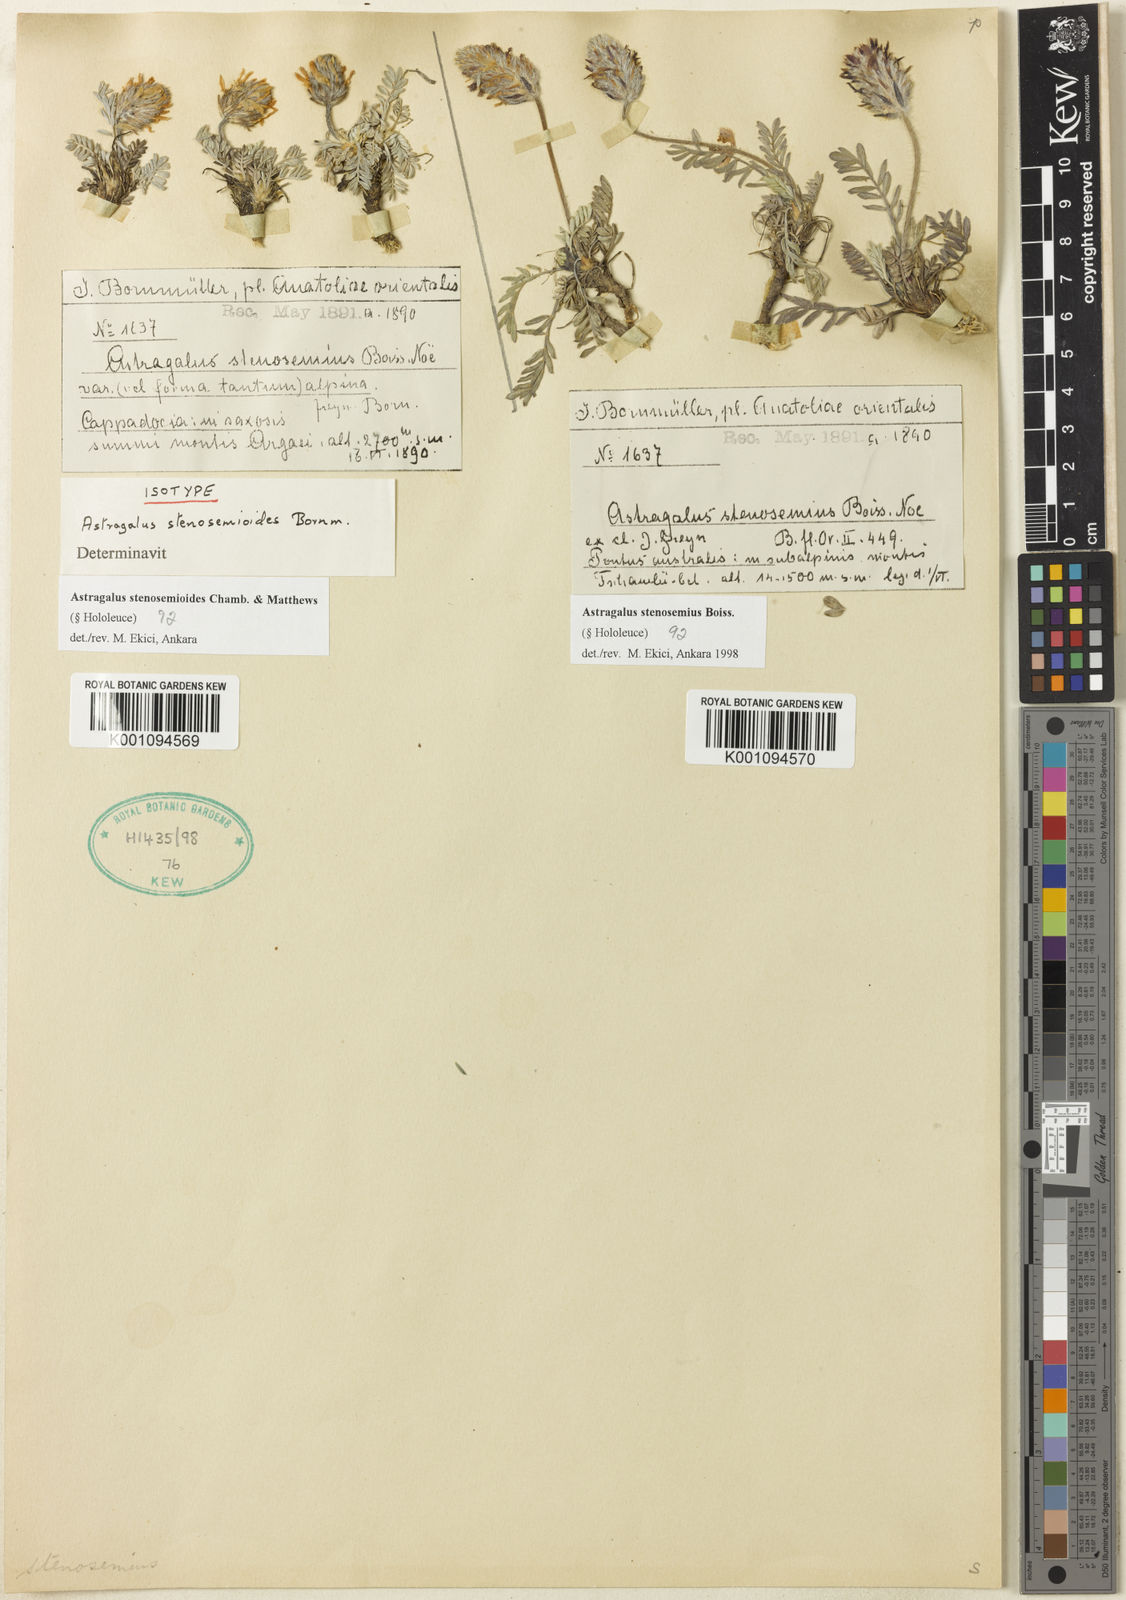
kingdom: Plantae
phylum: Tracheophyta
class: Magnoliopsida
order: Fabales
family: Fabaceae
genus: Astragalus
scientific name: Astragalus
